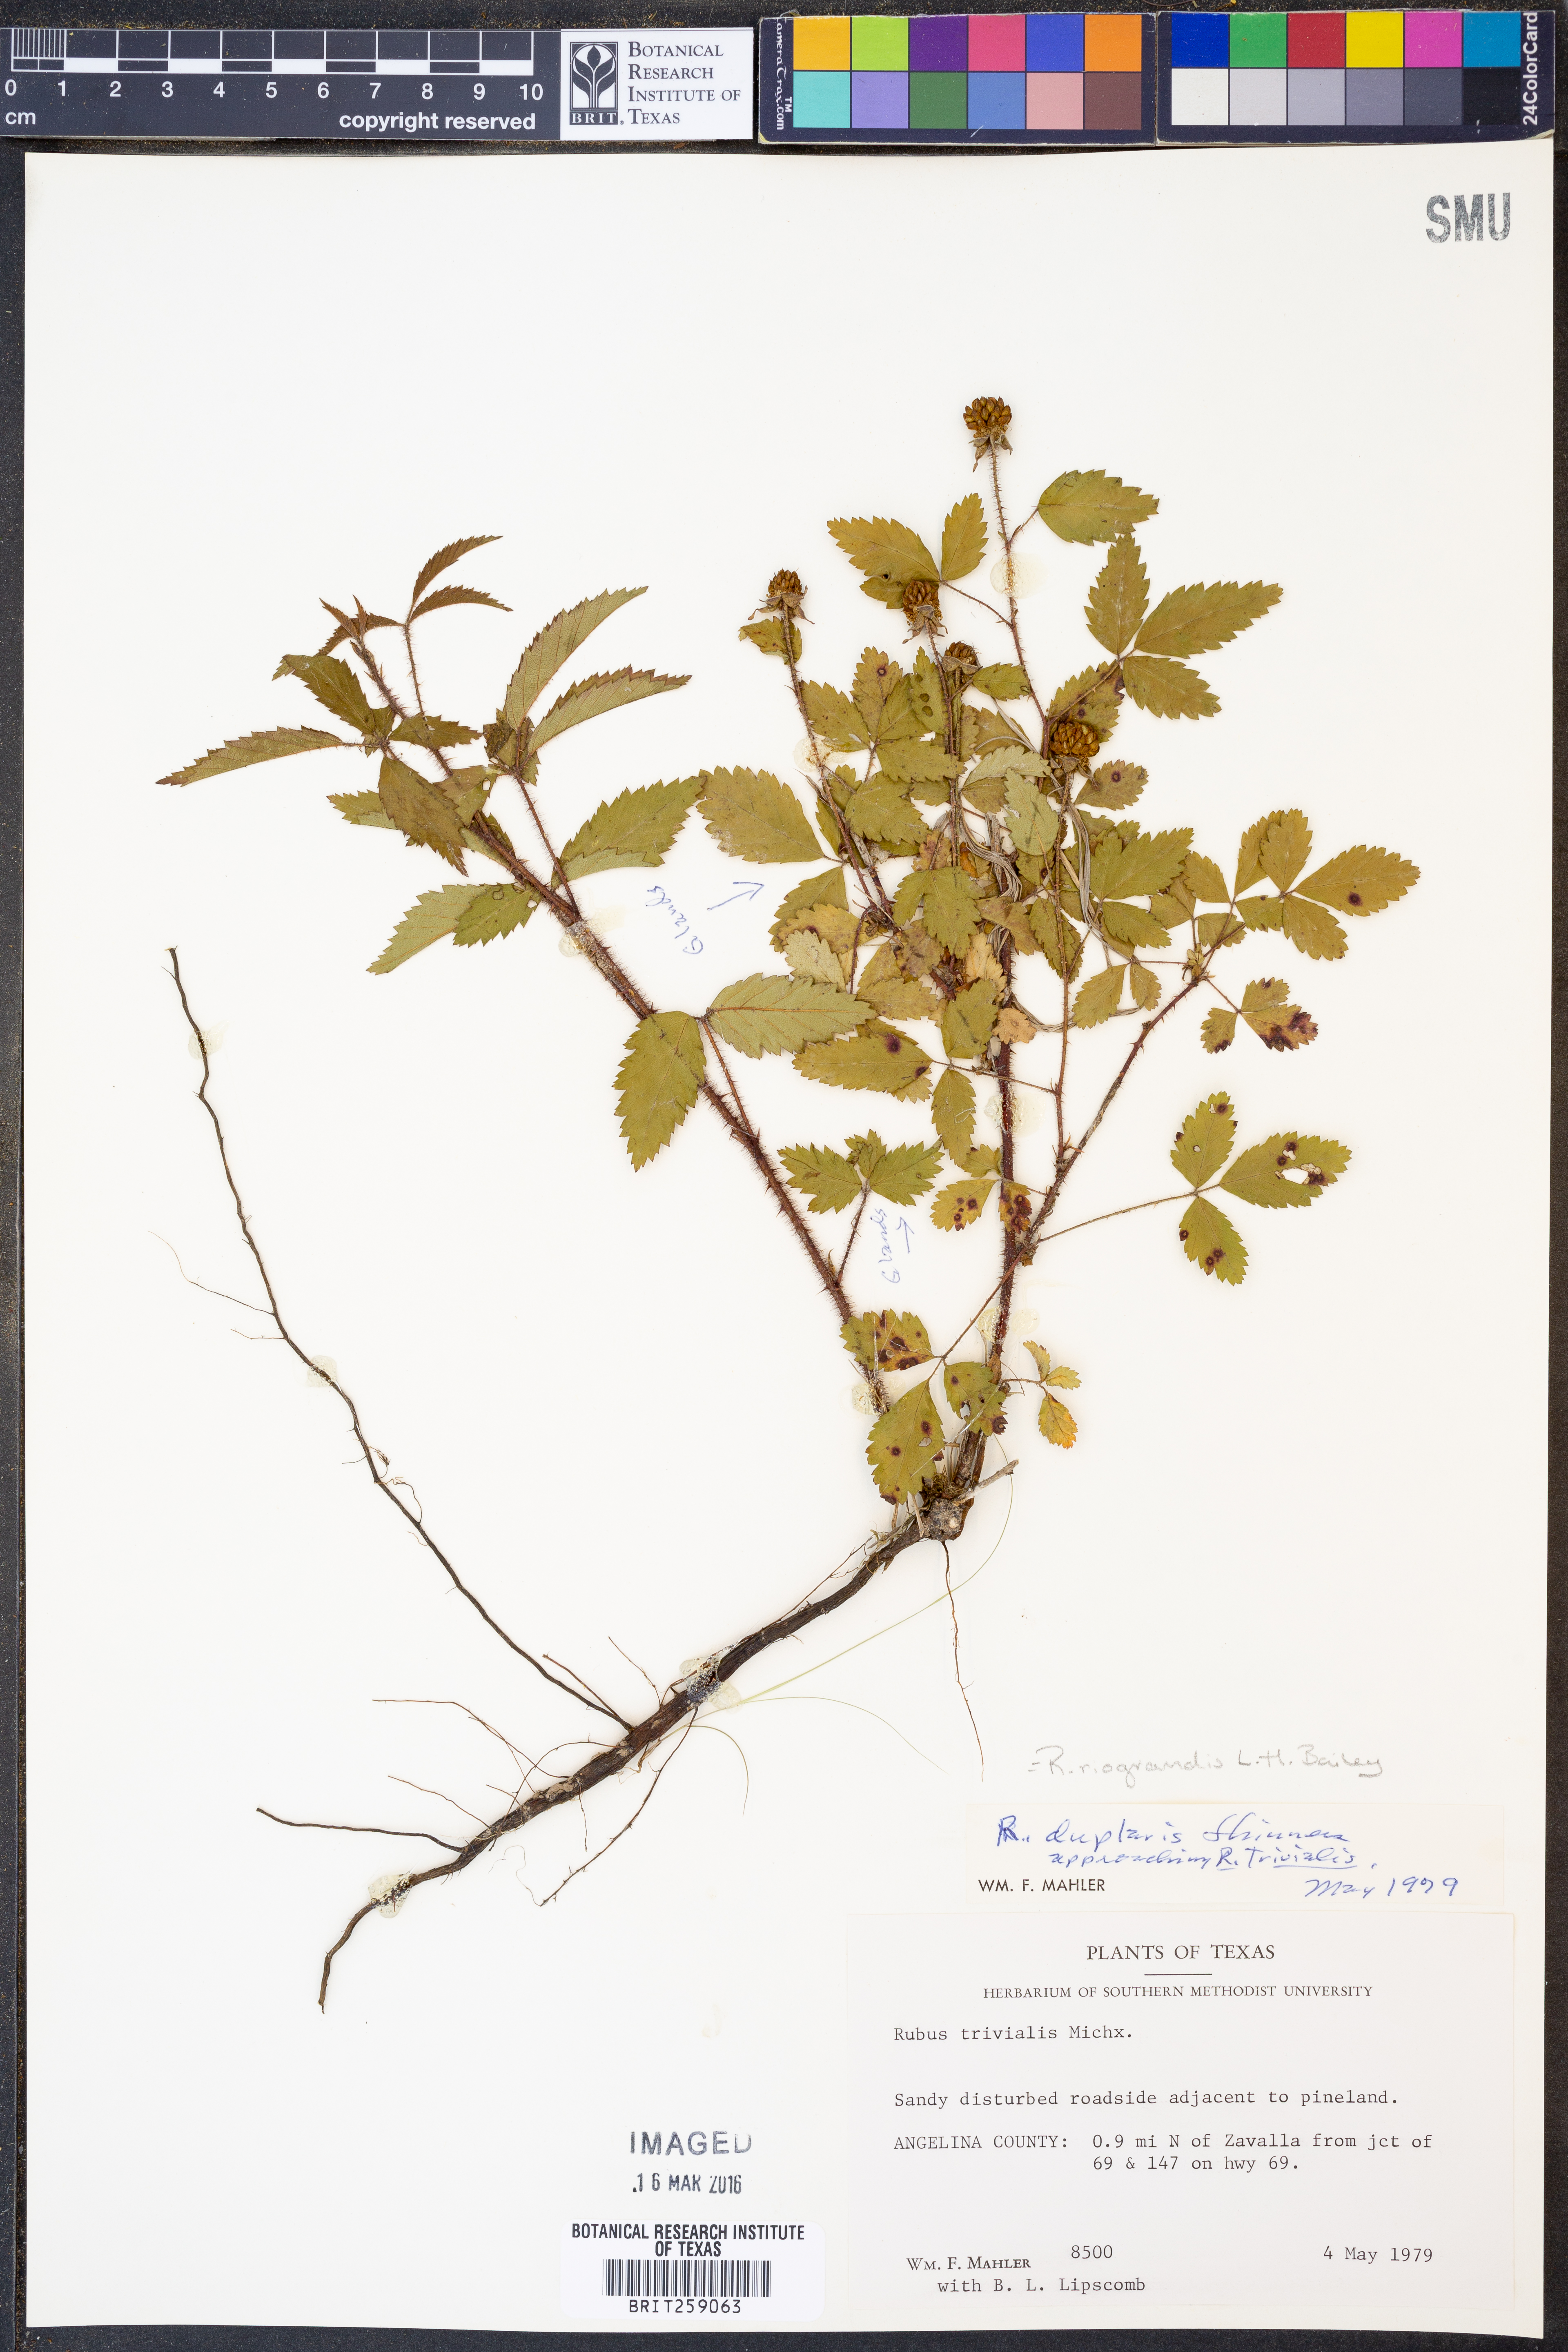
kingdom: Plantae
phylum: Tracheophyta
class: Magnoliopsida
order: Rosales
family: Rosaceae
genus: Rubus
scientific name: Rubus riograndis
